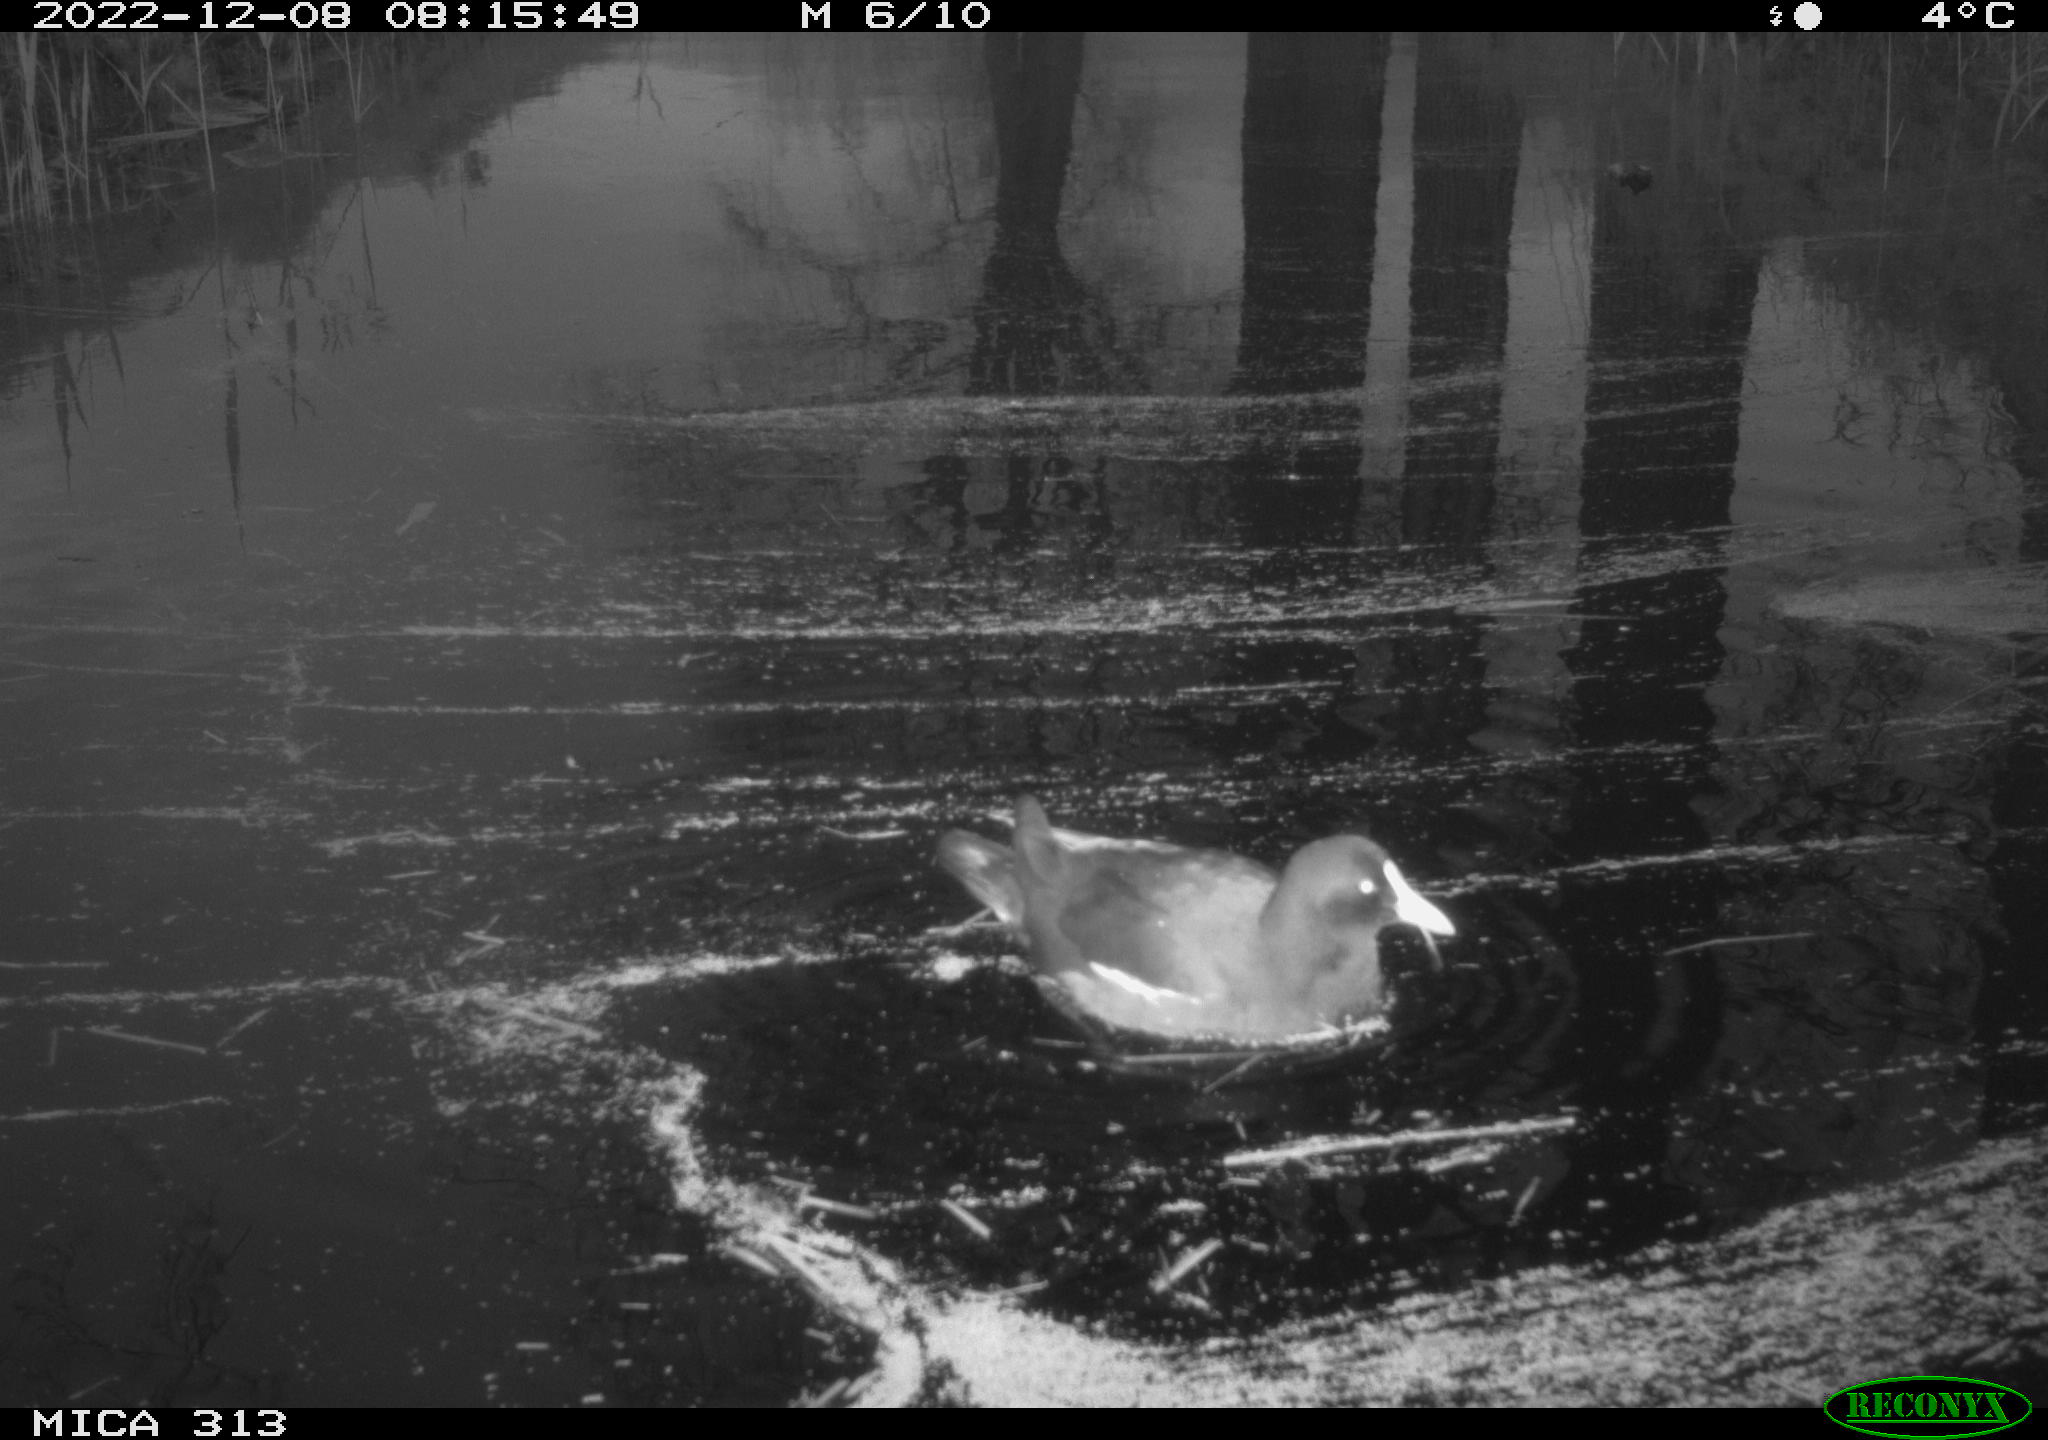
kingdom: Animalia
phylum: Chordata
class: Aves
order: Gruiformes
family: Rallidae
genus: Gallinula
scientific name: Gallinula chloropus
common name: Common moorhen
